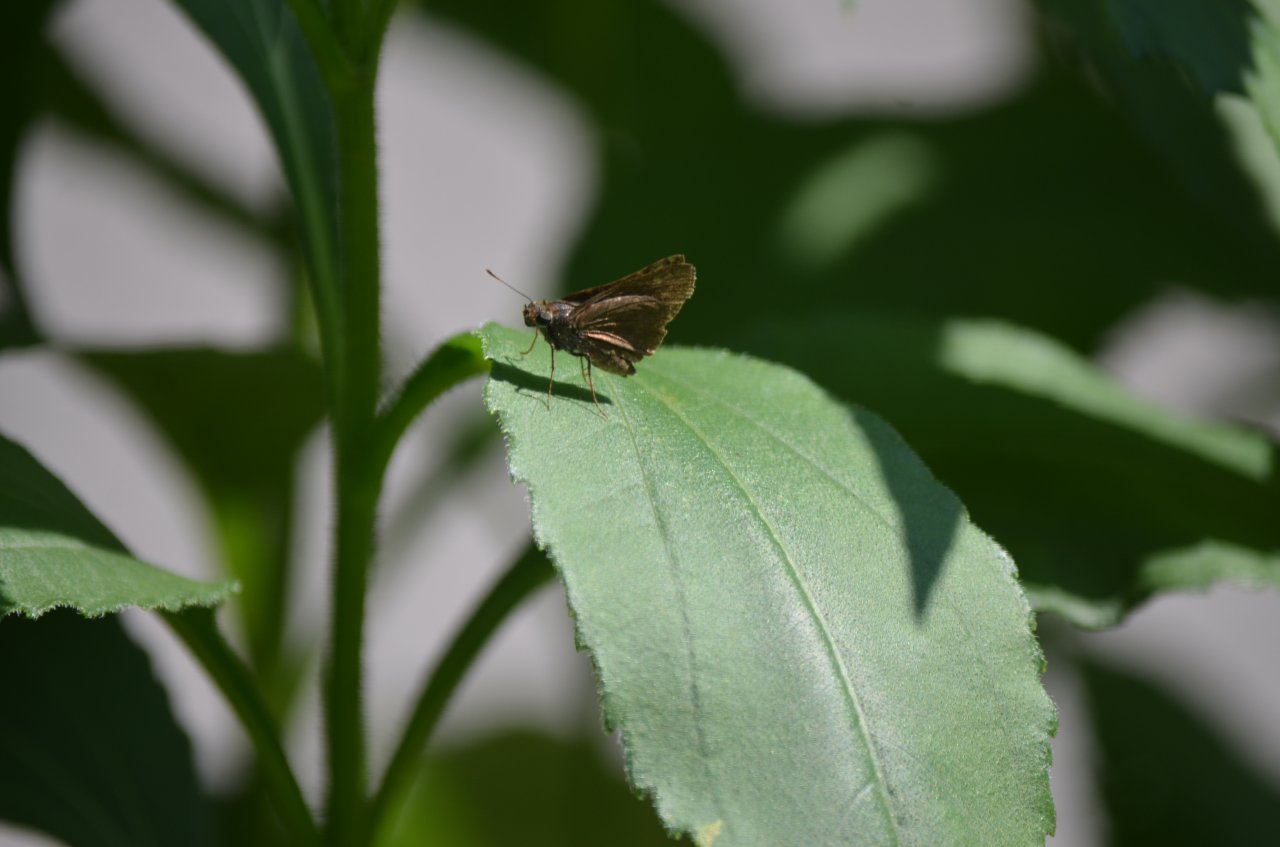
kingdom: Animalia
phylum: Arthropoda
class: Insecta
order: Lepidoptera
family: Hesperiidae
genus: Euphyes
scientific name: Euphyes vestris
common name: Dun Skipper
